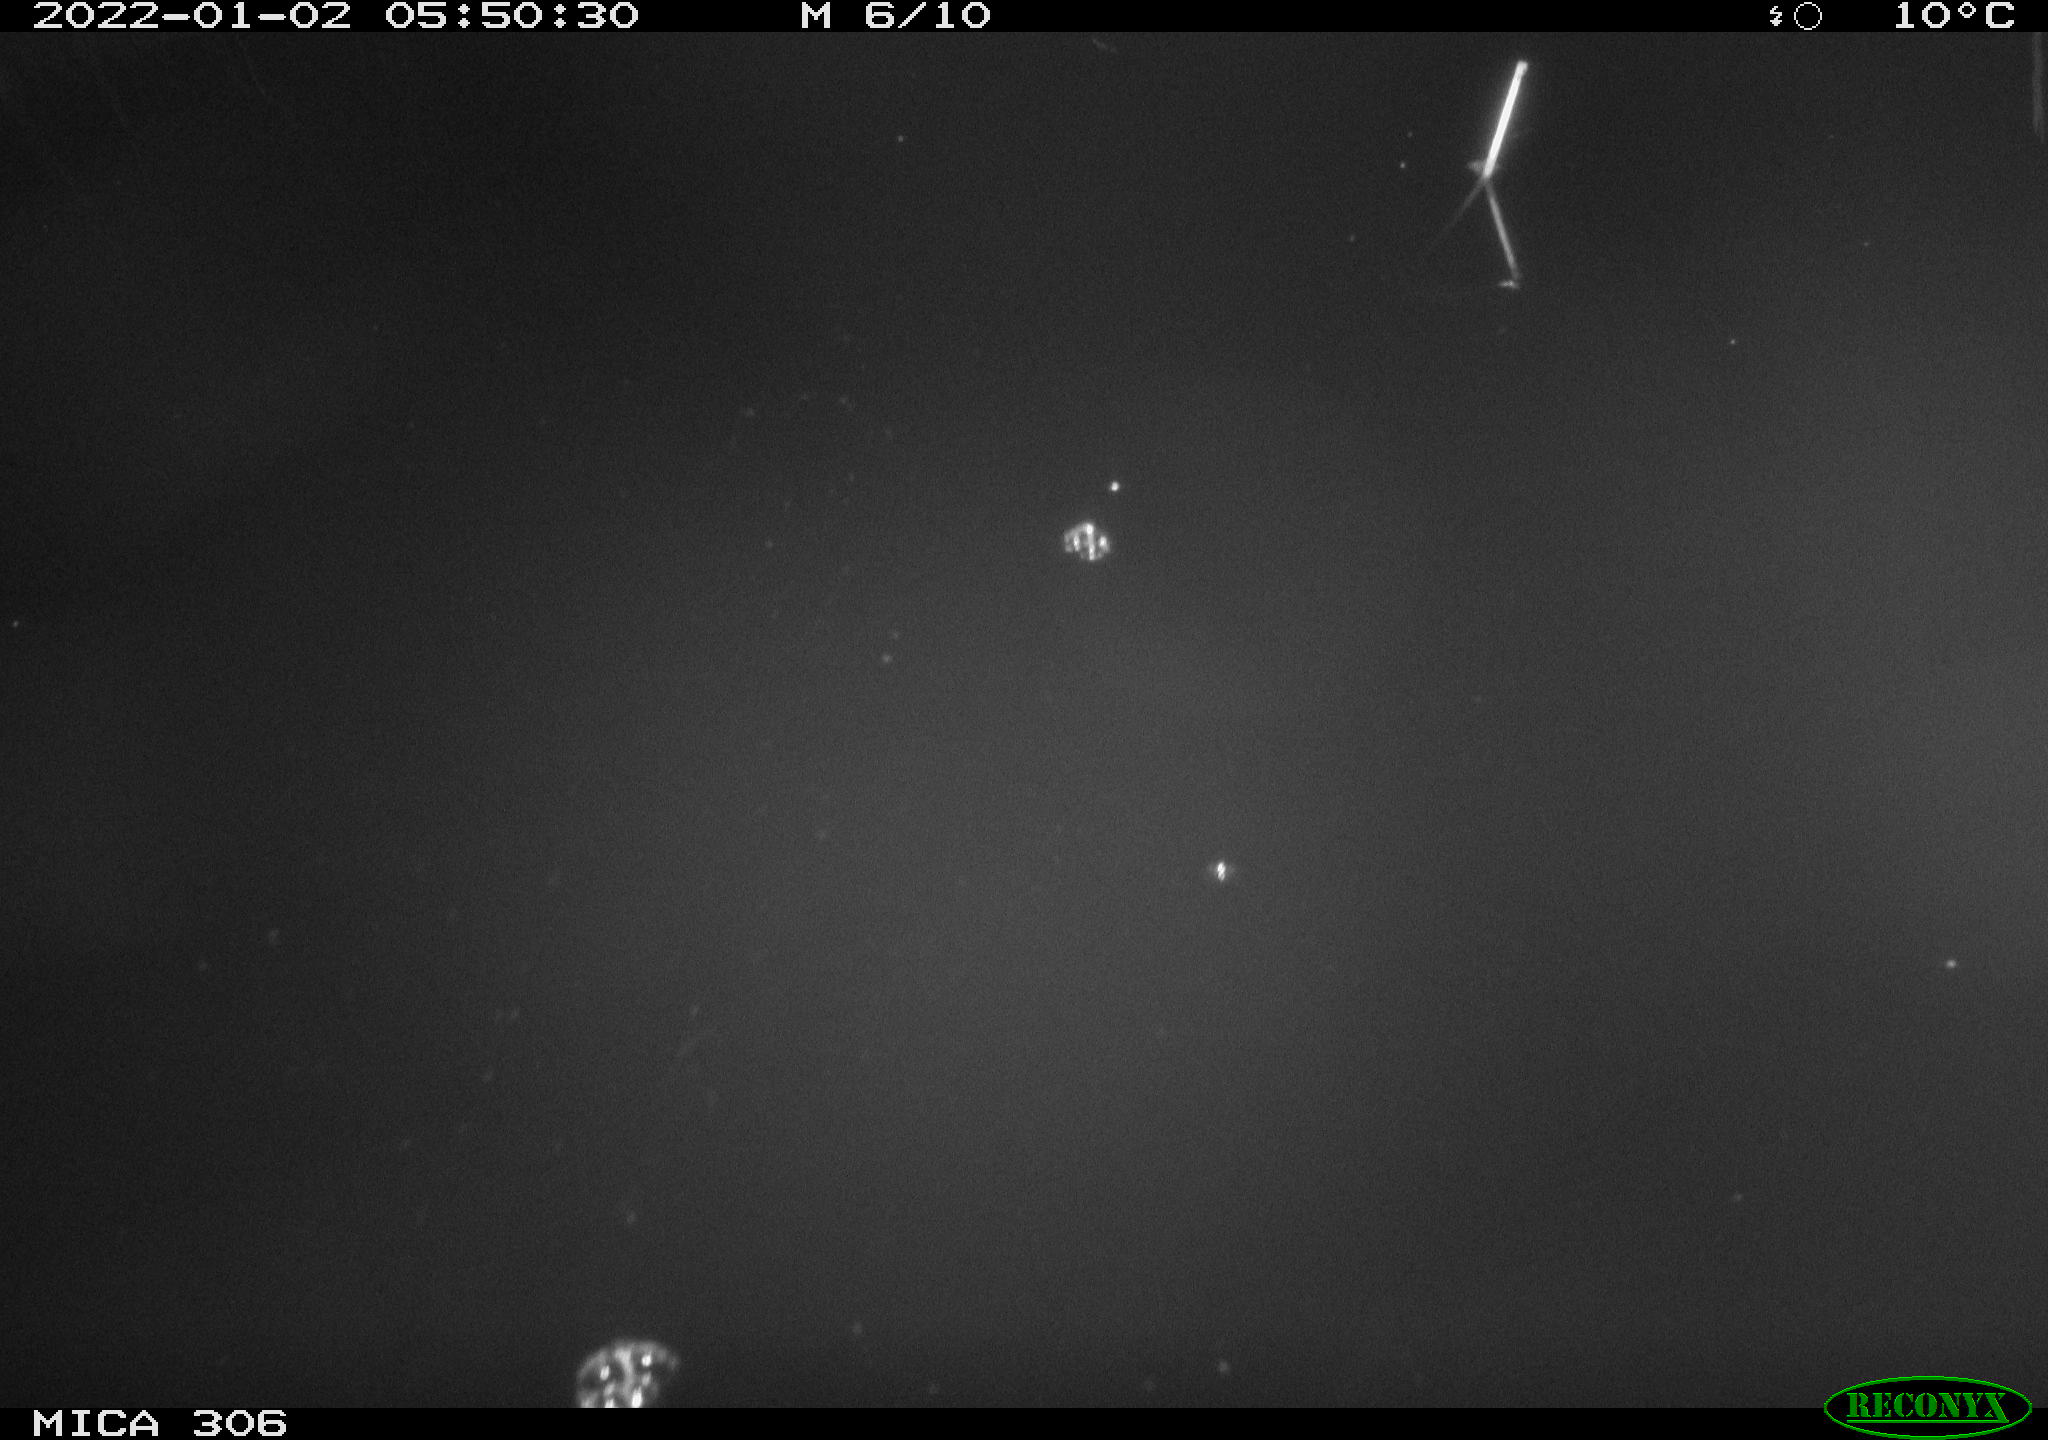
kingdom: Animalia
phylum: Chordata
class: Mammalia
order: Rodentia
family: Muridae
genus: Rattus
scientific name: Rattus norvegicus
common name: Brown rat
